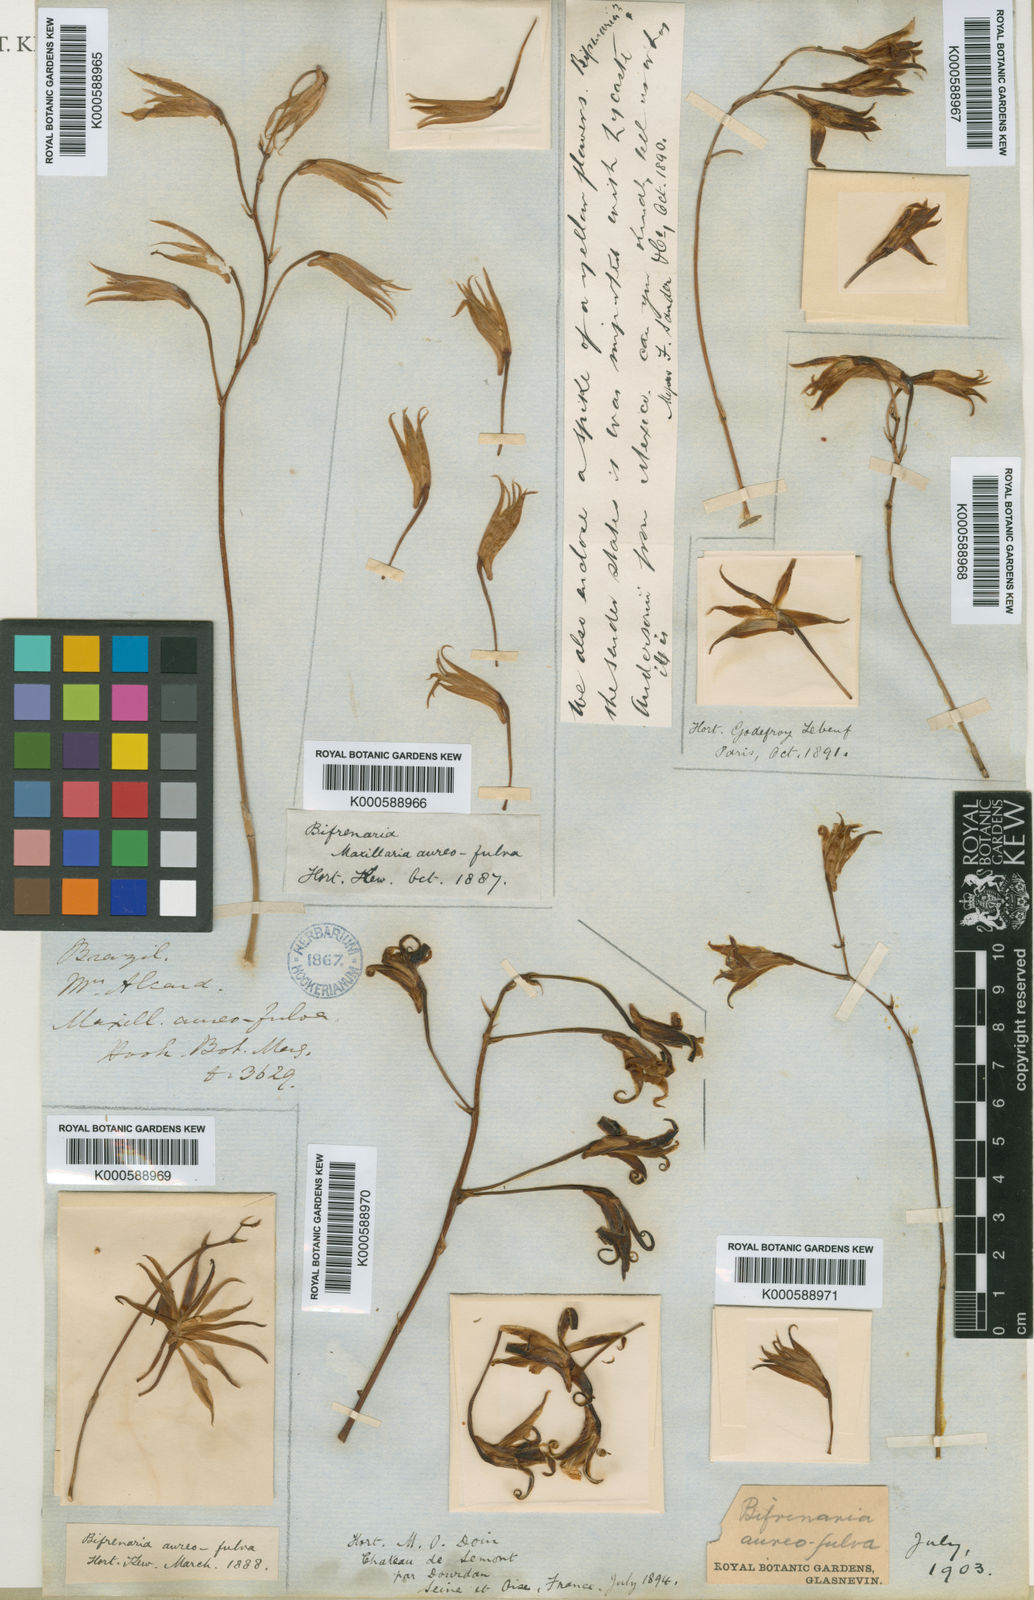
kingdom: Plantae
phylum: Tracheophyta
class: Liliopsida
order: Asparagales
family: Orchidaceae
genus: Bifrenaria
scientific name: Bifrenaria aureofulva
